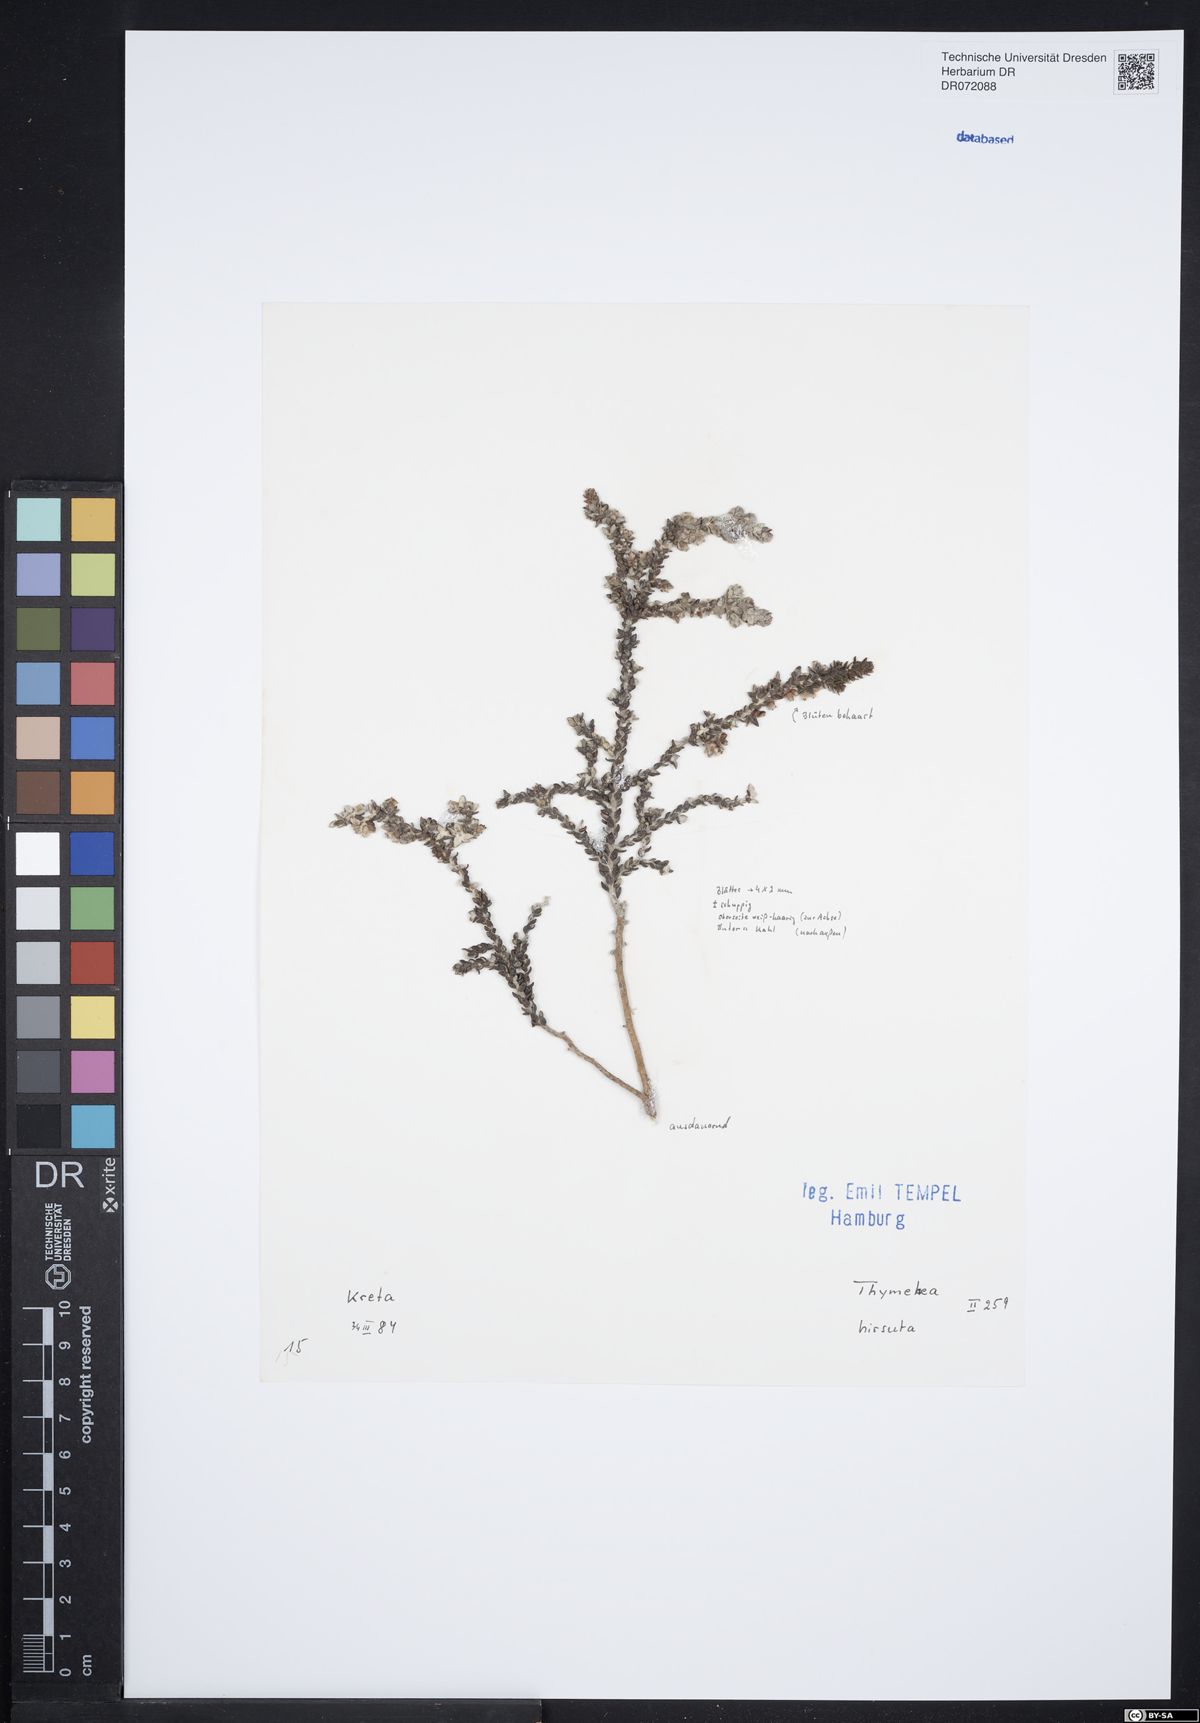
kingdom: Plantae
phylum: Tracheophyta
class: Magnoliopsida
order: Malvales
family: Thymelaeaceae
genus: Thymelaea
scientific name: Thymelaea hirsuta
